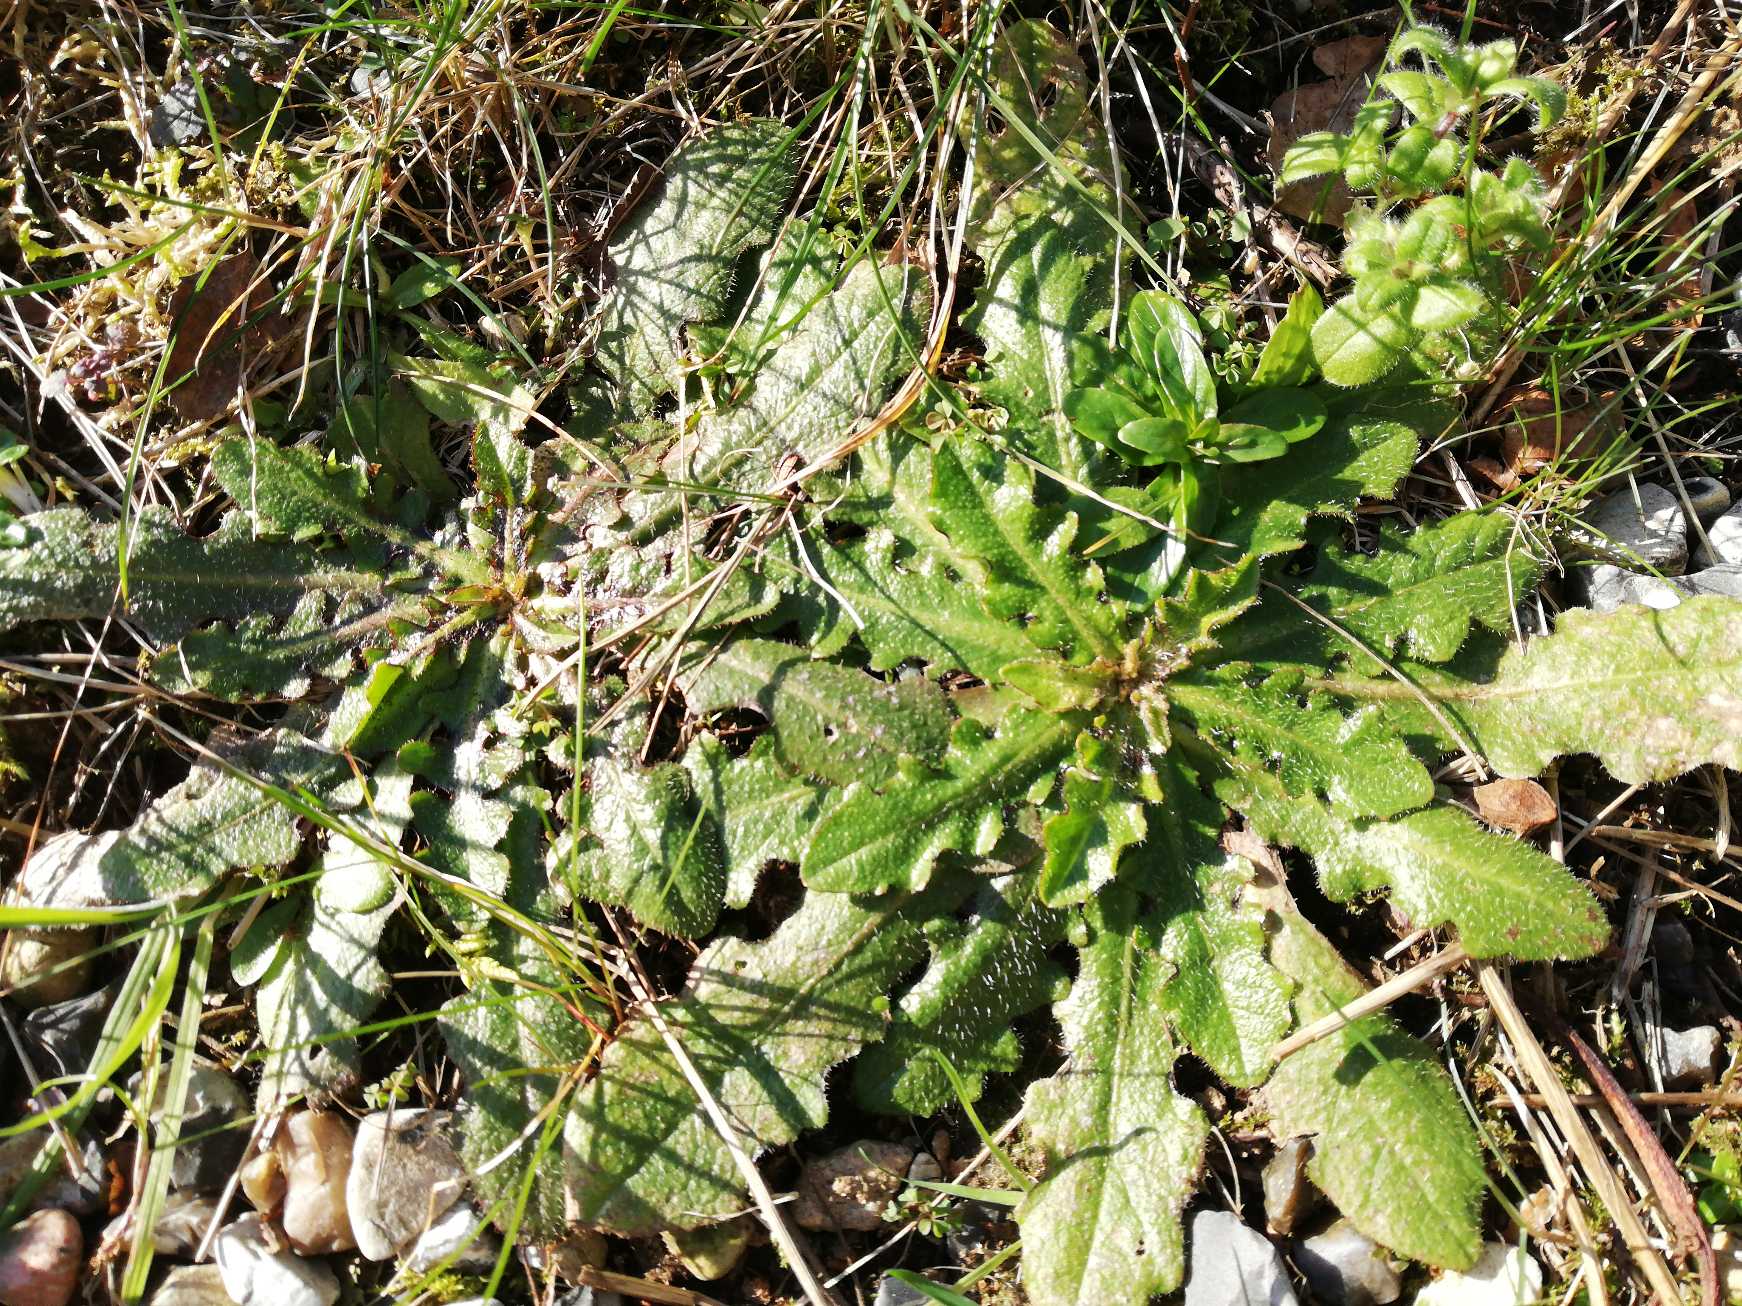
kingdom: Plantae
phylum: Tracheophyta
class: Magnoliopsida
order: Asterales
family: Asteraceae
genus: Hypochaeris
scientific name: Hypochaeris radicata
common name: Almindelig kongepen
